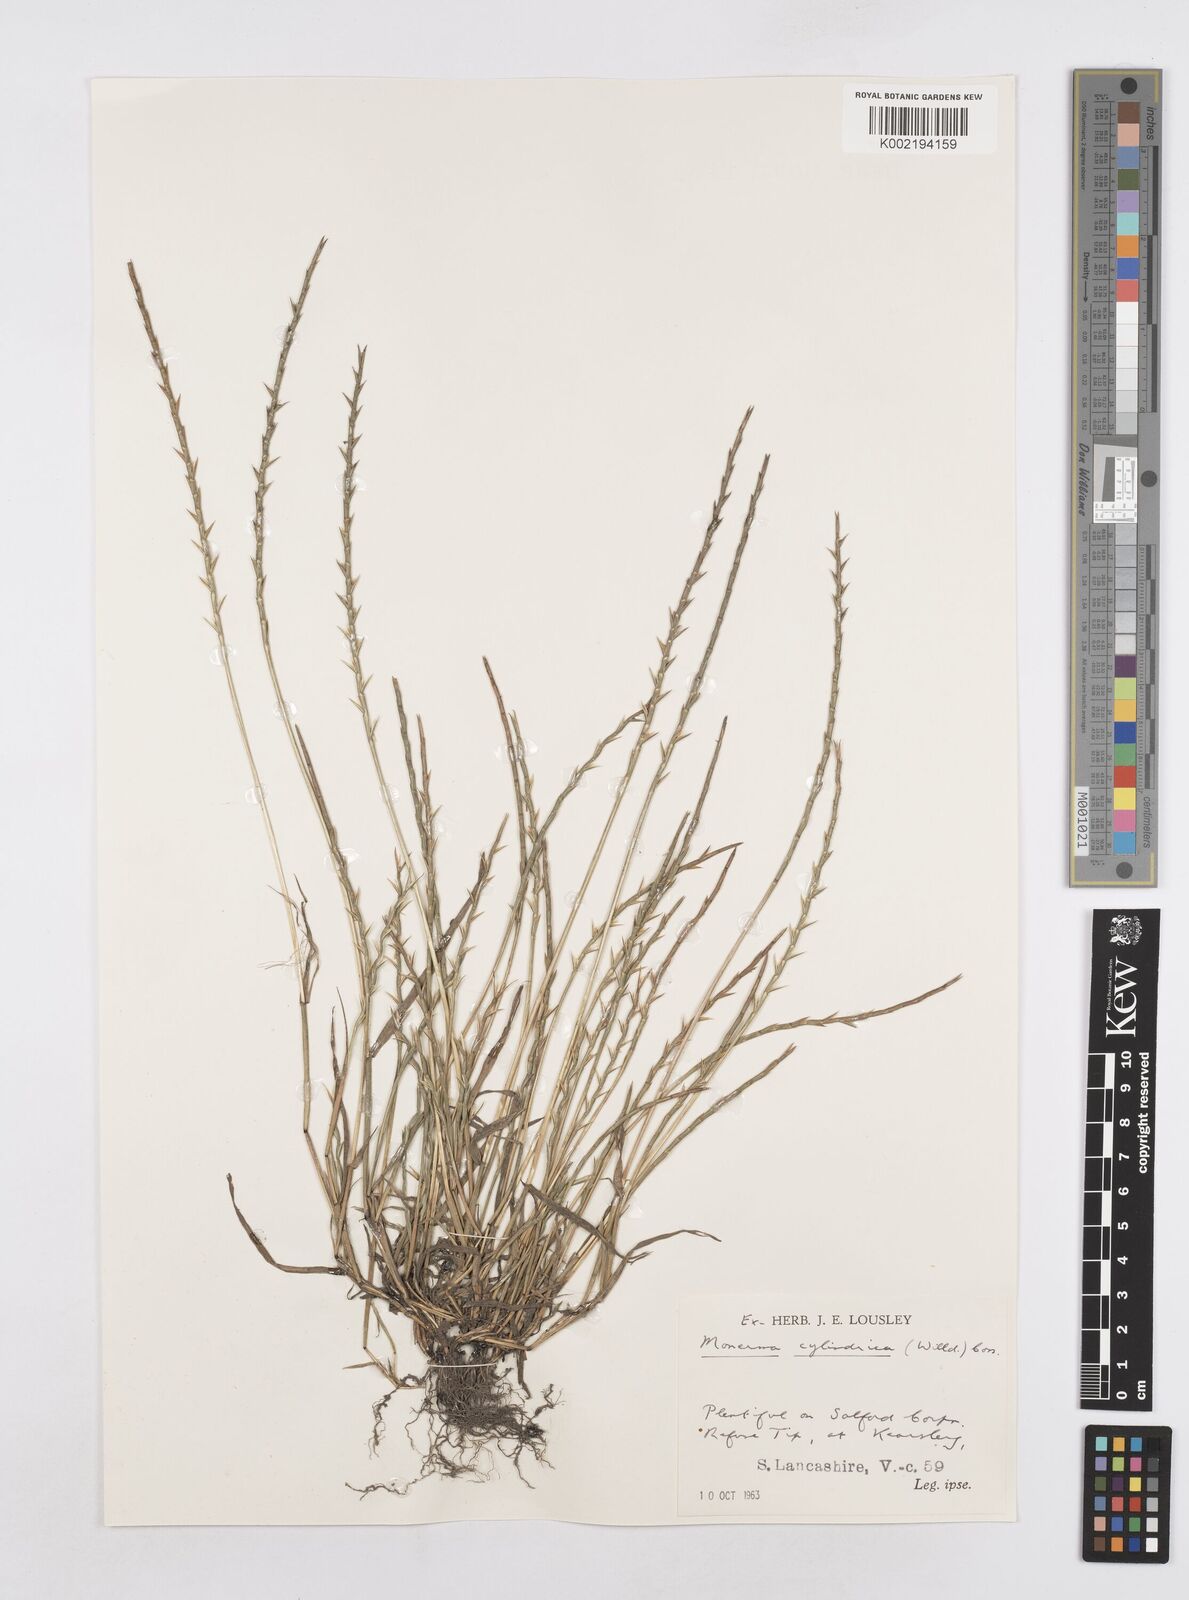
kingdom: Plantae
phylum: Tracheophyta
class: Liliopsida
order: Poales
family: Poaceae
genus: Parapholis
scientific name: Parapholis cylindrica
